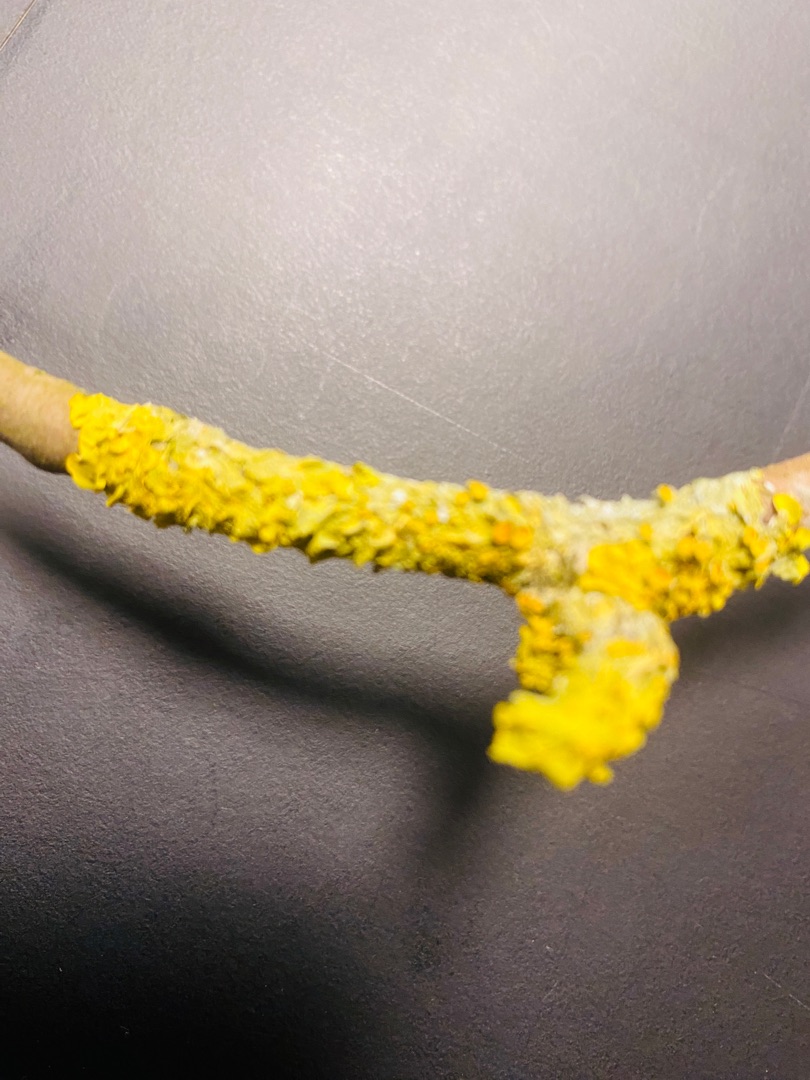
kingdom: Fungi
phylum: Ascomycota
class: Lecanoromycetes
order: Teloschistales
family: Teloschistaceae
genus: Xanthoria
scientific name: Xanthoria parietina
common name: Almindelig væggelav
